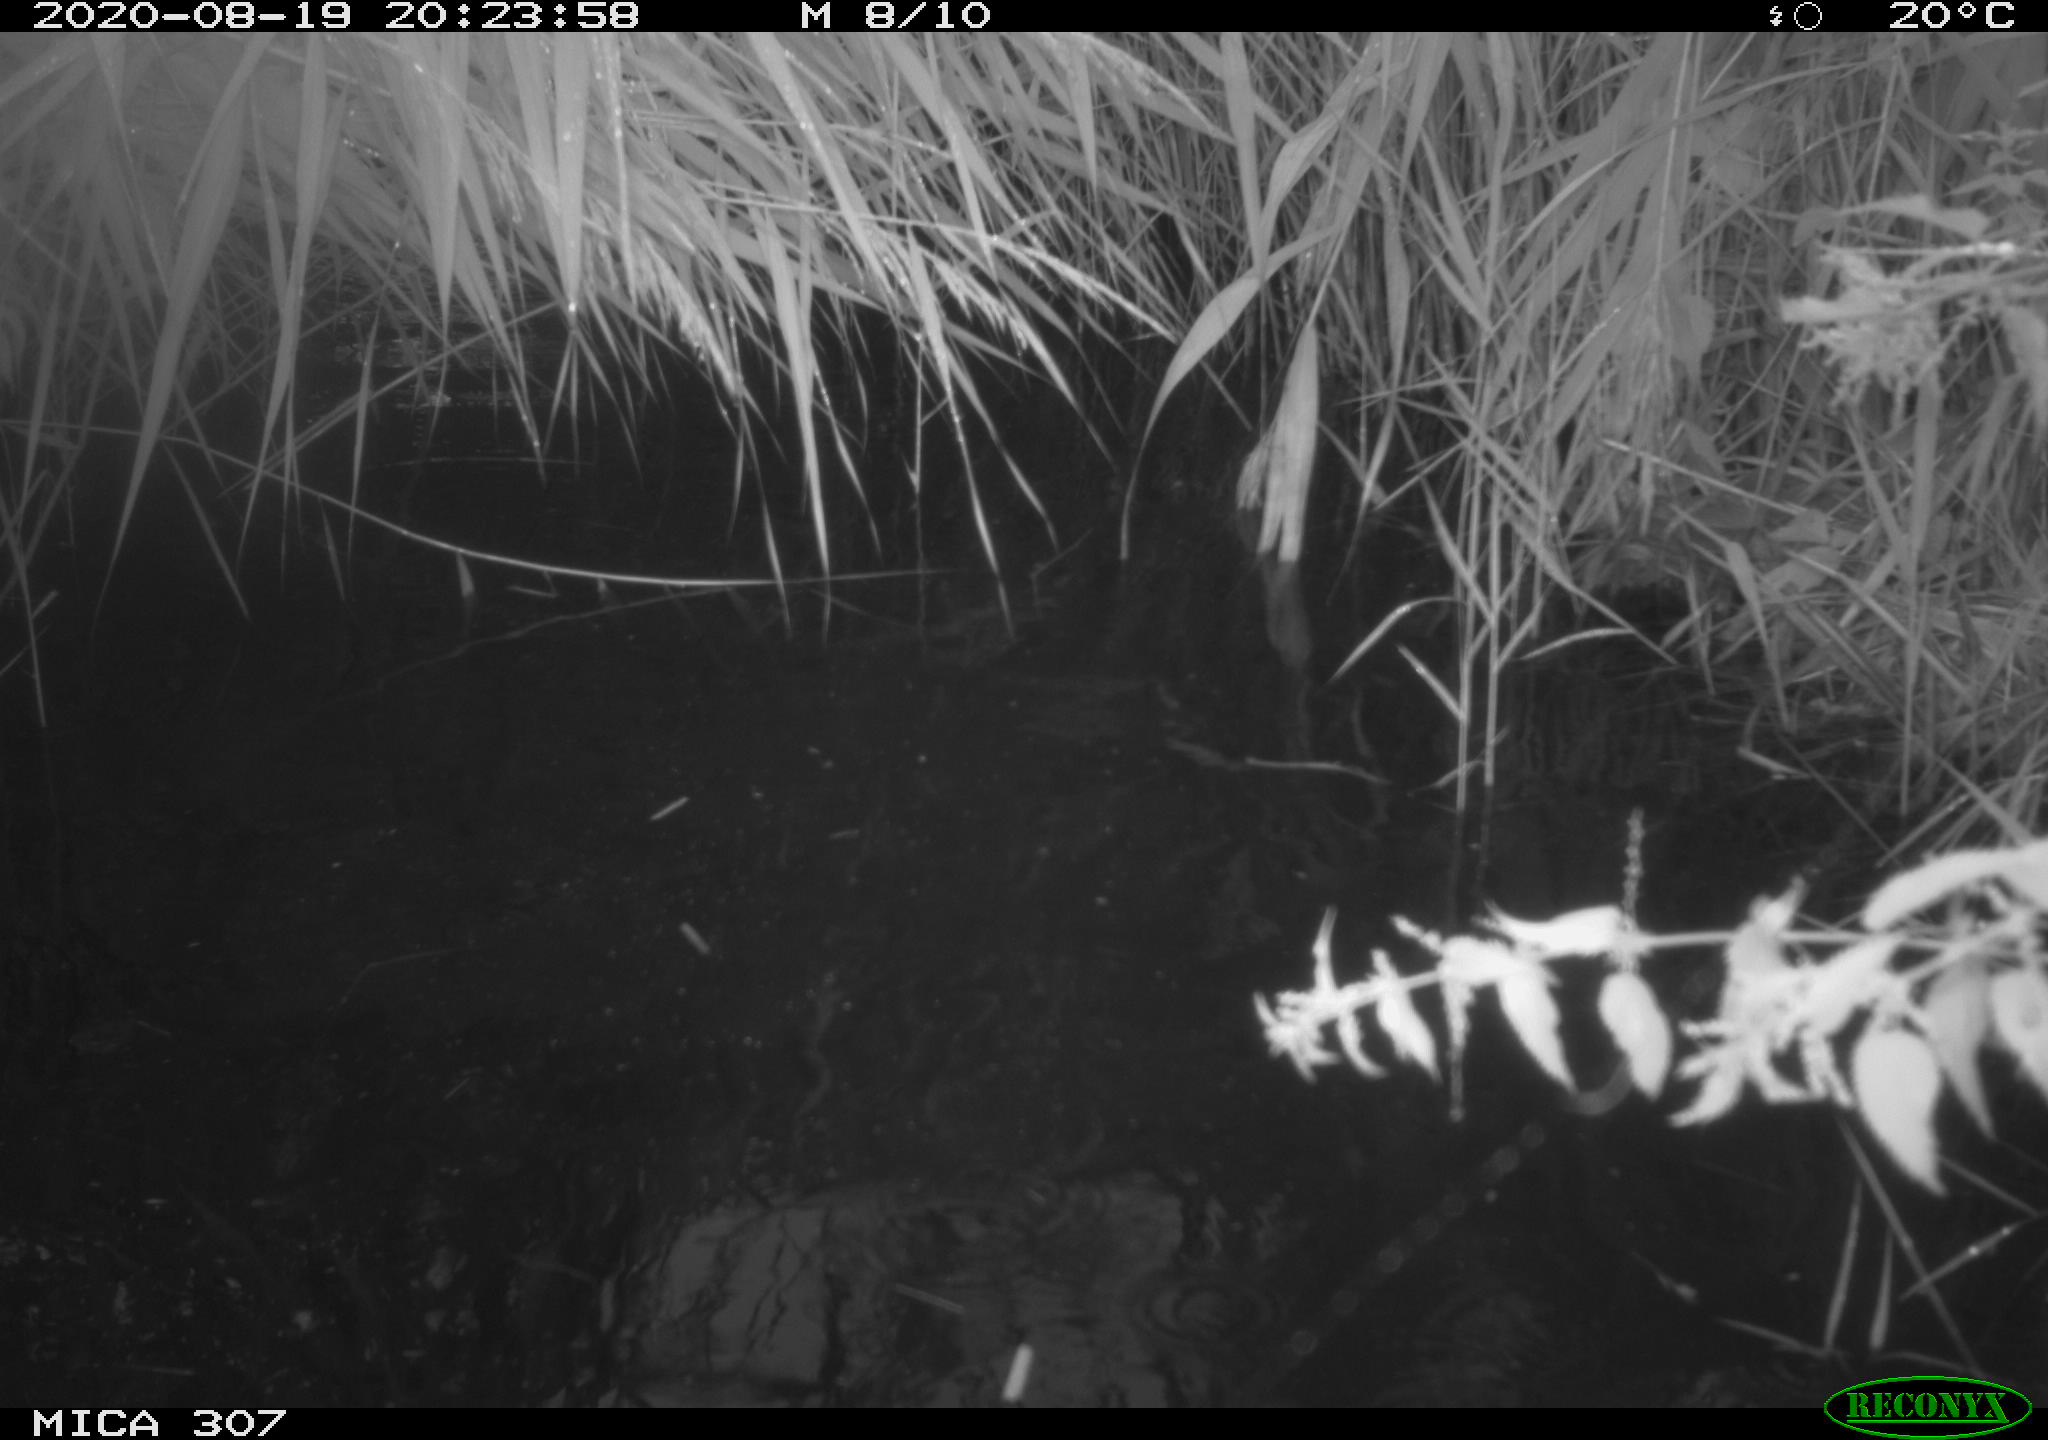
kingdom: Animalia
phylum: Chordata
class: Aves
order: Anseriformes
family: Anatidae
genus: Anas
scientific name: Anas platyrhynchos
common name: Mallard
